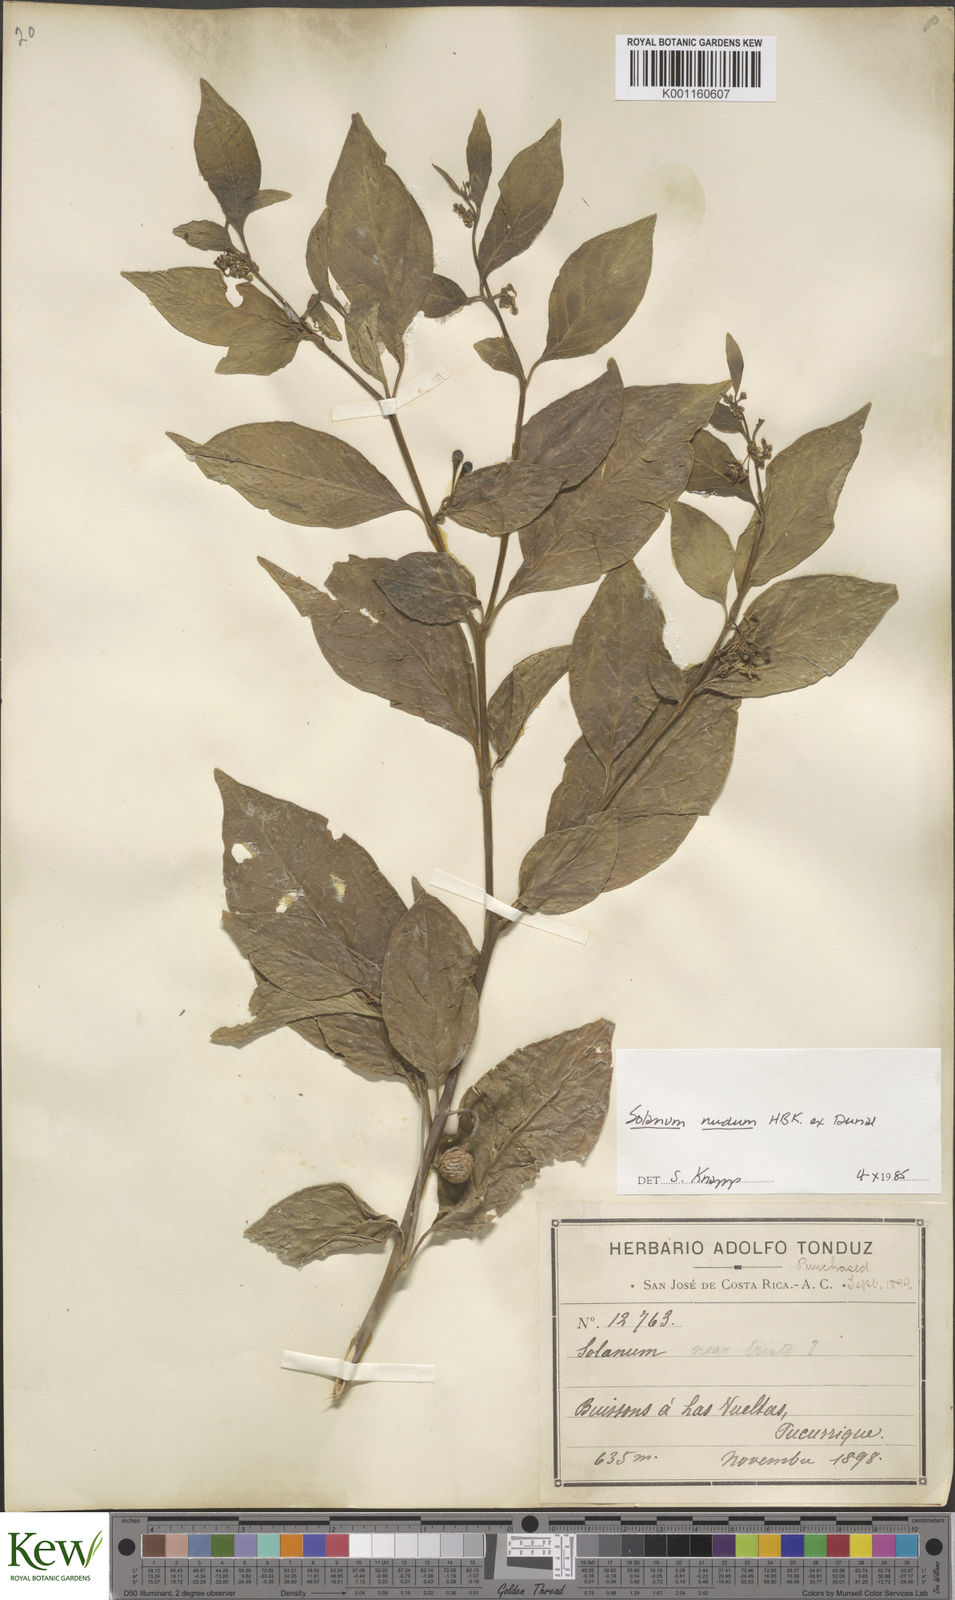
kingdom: Plantae
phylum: Tracheophyta
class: Magnoliopsida
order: Solanales
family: Solanaceae
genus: Solanum
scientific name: Solanum nudum
